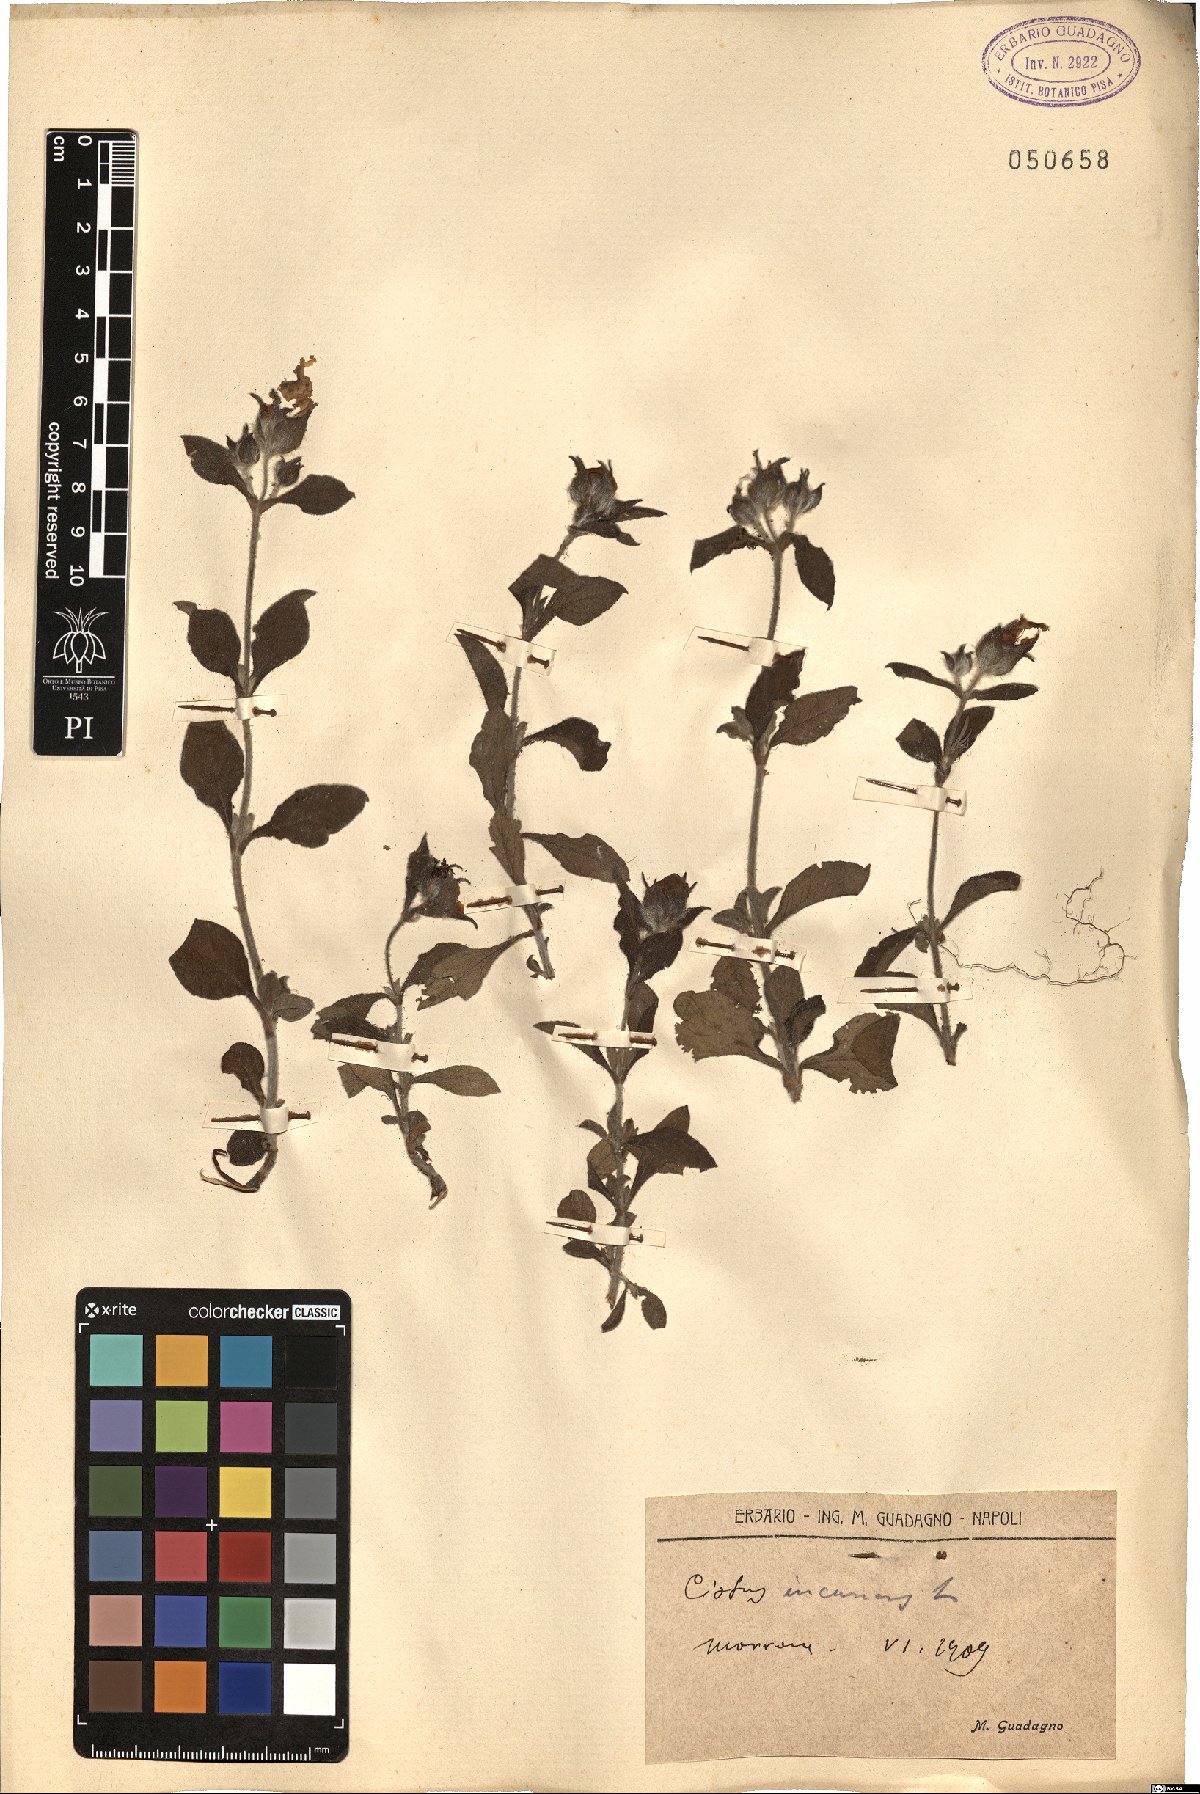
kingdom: Plantae
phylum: Tracheophyta
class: Magnoliopsida
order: Malvales
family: Cistaceae
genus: Cistus
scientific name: Cistus incanus
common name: Hairy rockrose
